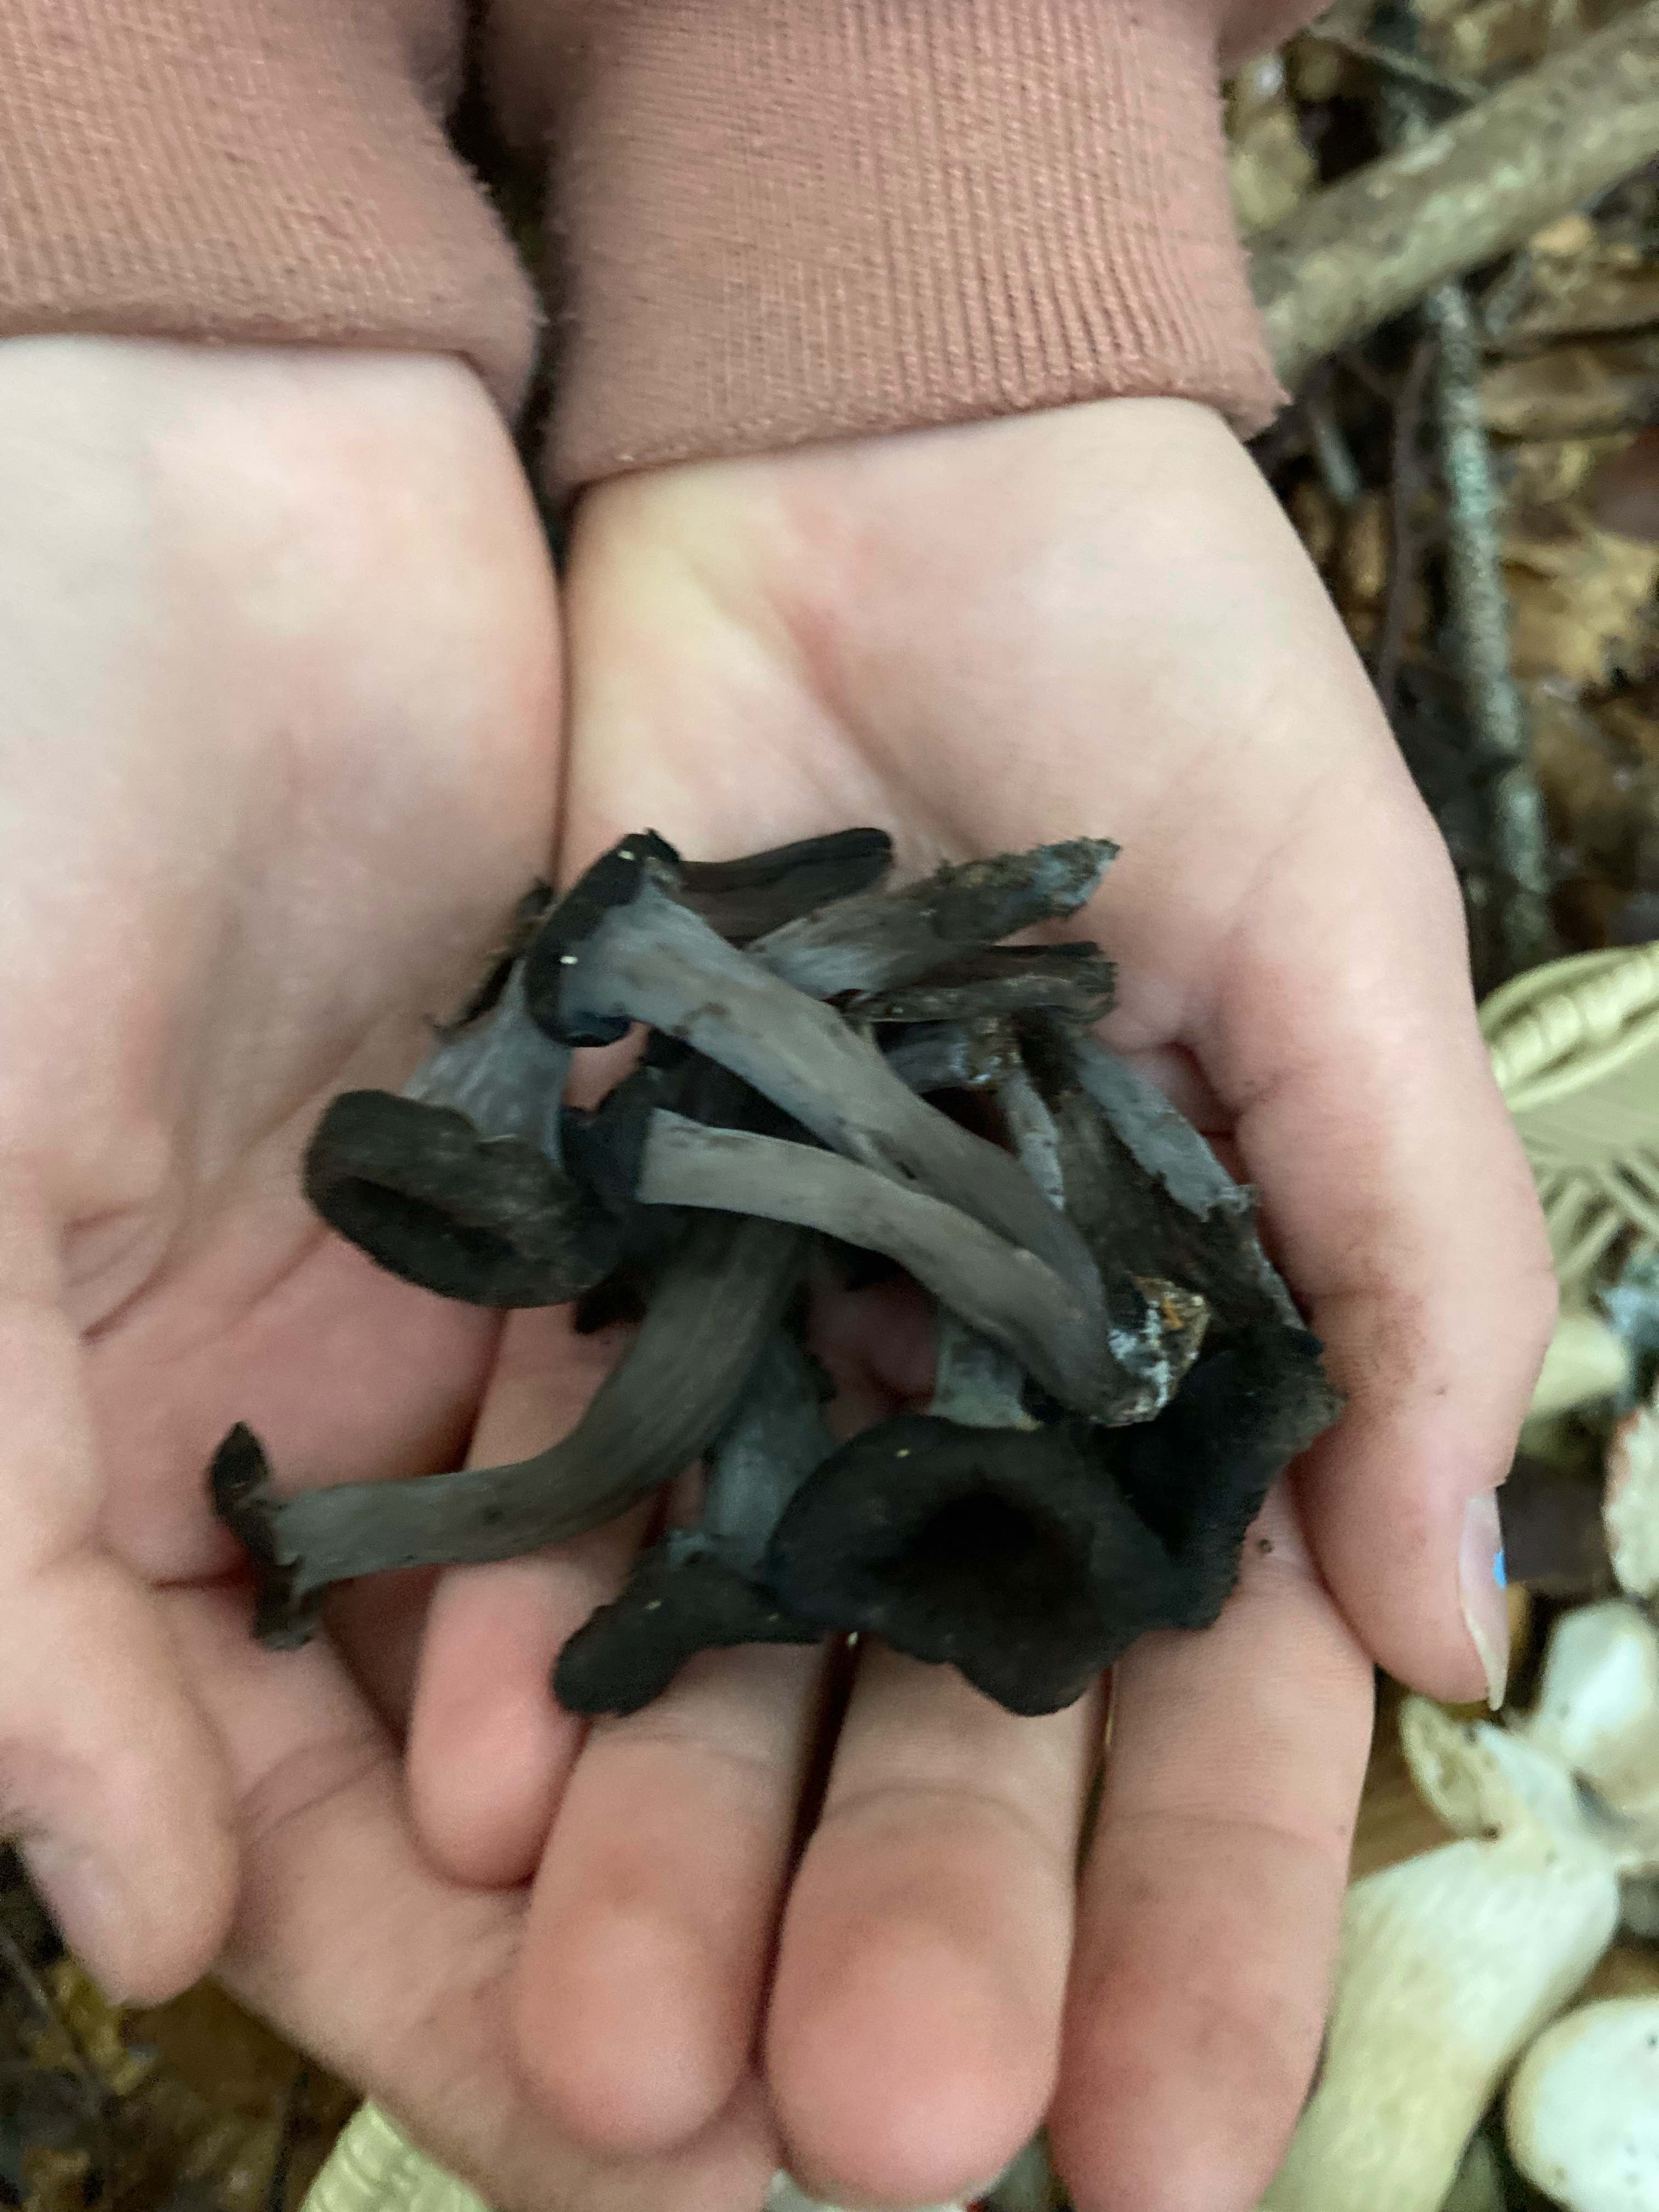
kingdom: Fungi
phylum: Basidiomycota
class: Agaricomycetes
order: Cantharellales
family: Hydnaceae
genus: Craterellus
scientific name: Craterellus cornucopioides
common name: trompetsvamp
